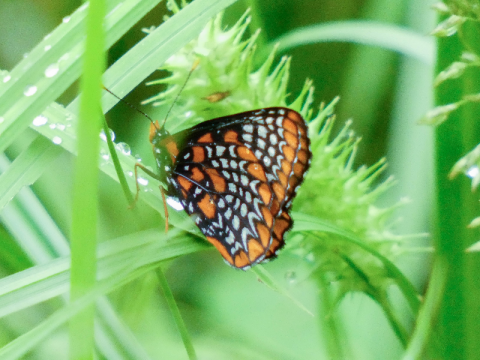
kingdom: Animalia
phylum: Arthropoda
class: Insecta
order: Lepidoptera
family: Nymphalidae
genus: Euphydryas
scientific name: Euphydryas phaeton
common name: Baltimore Checkerspot
